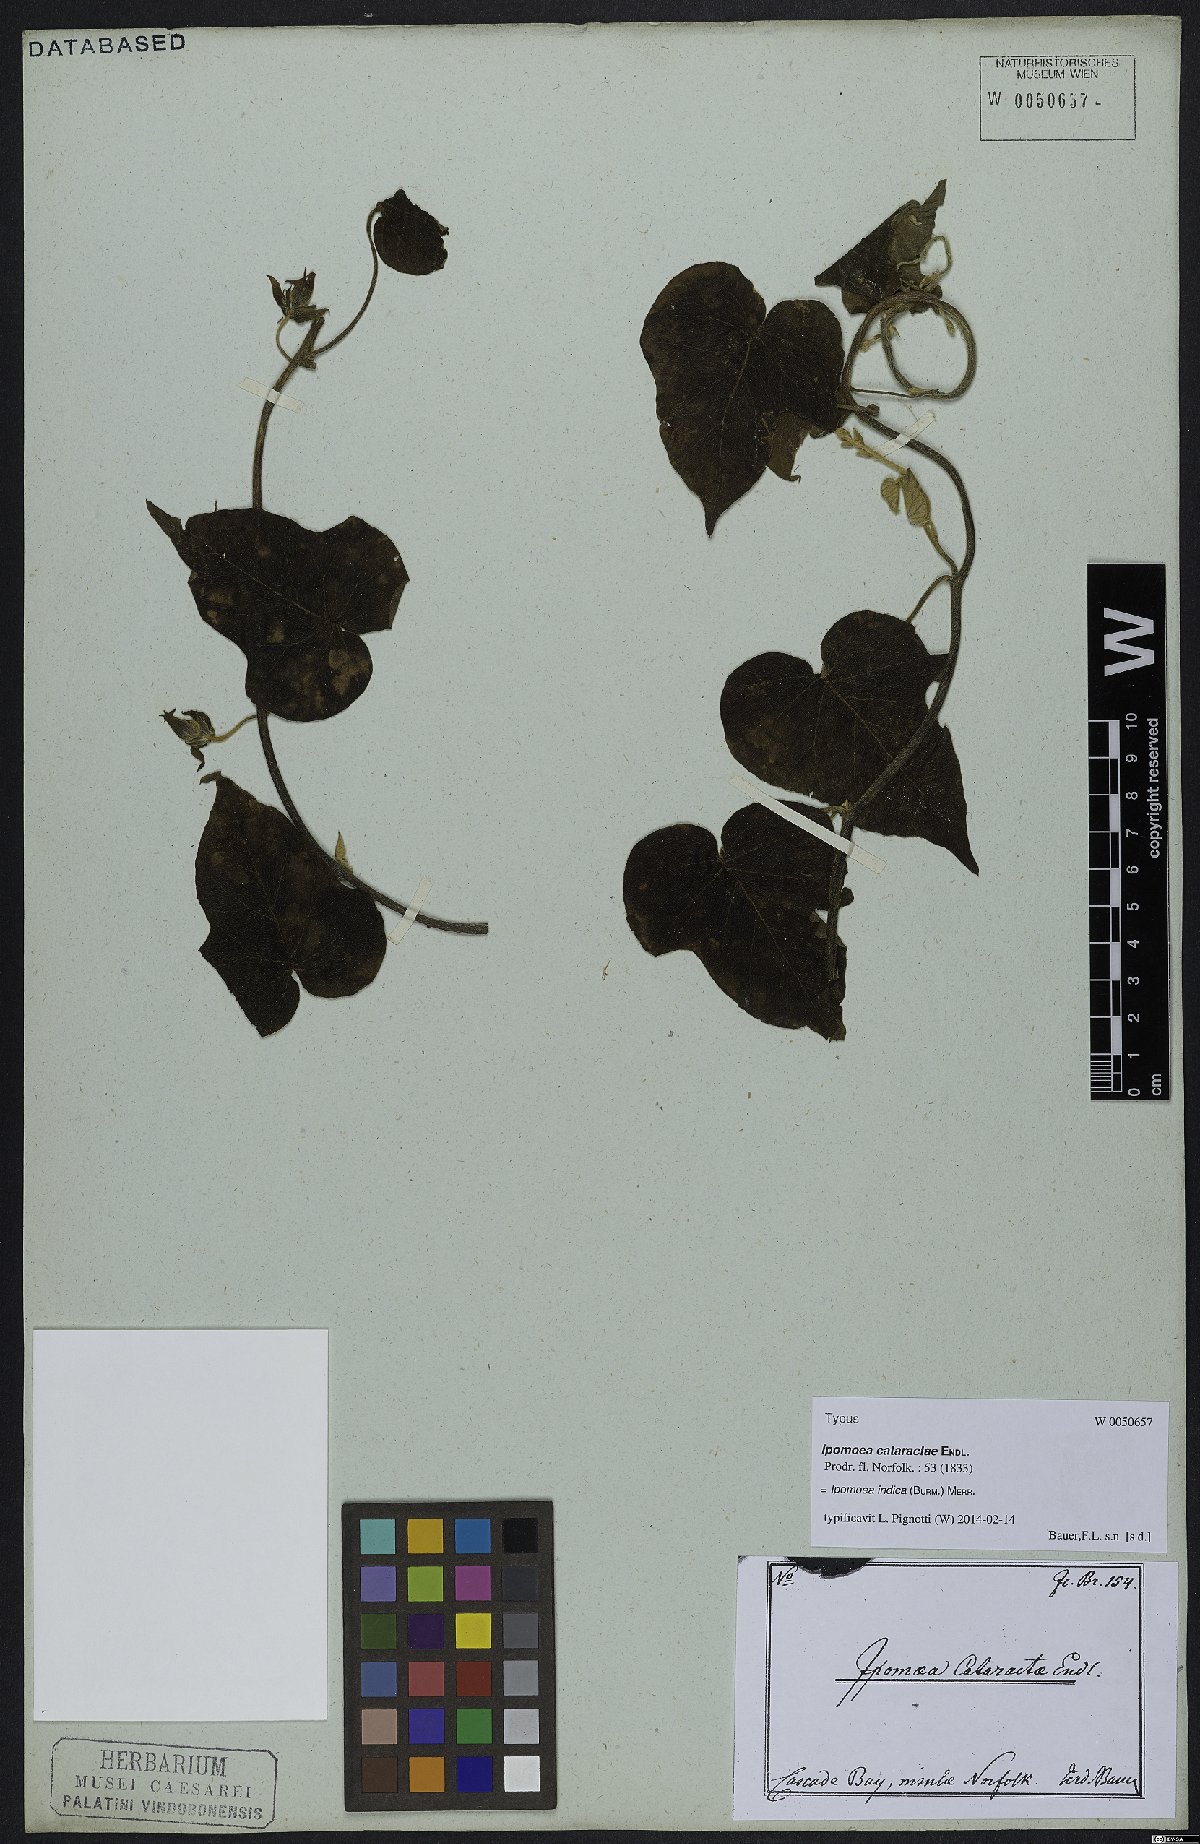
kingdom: Plantae
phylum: Tracheophyta
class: Magnoliopsida
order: Solanales
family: Convolvulaceae
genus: Ipomoea
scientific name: Ipomoea indica
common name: Blue dawnflower
